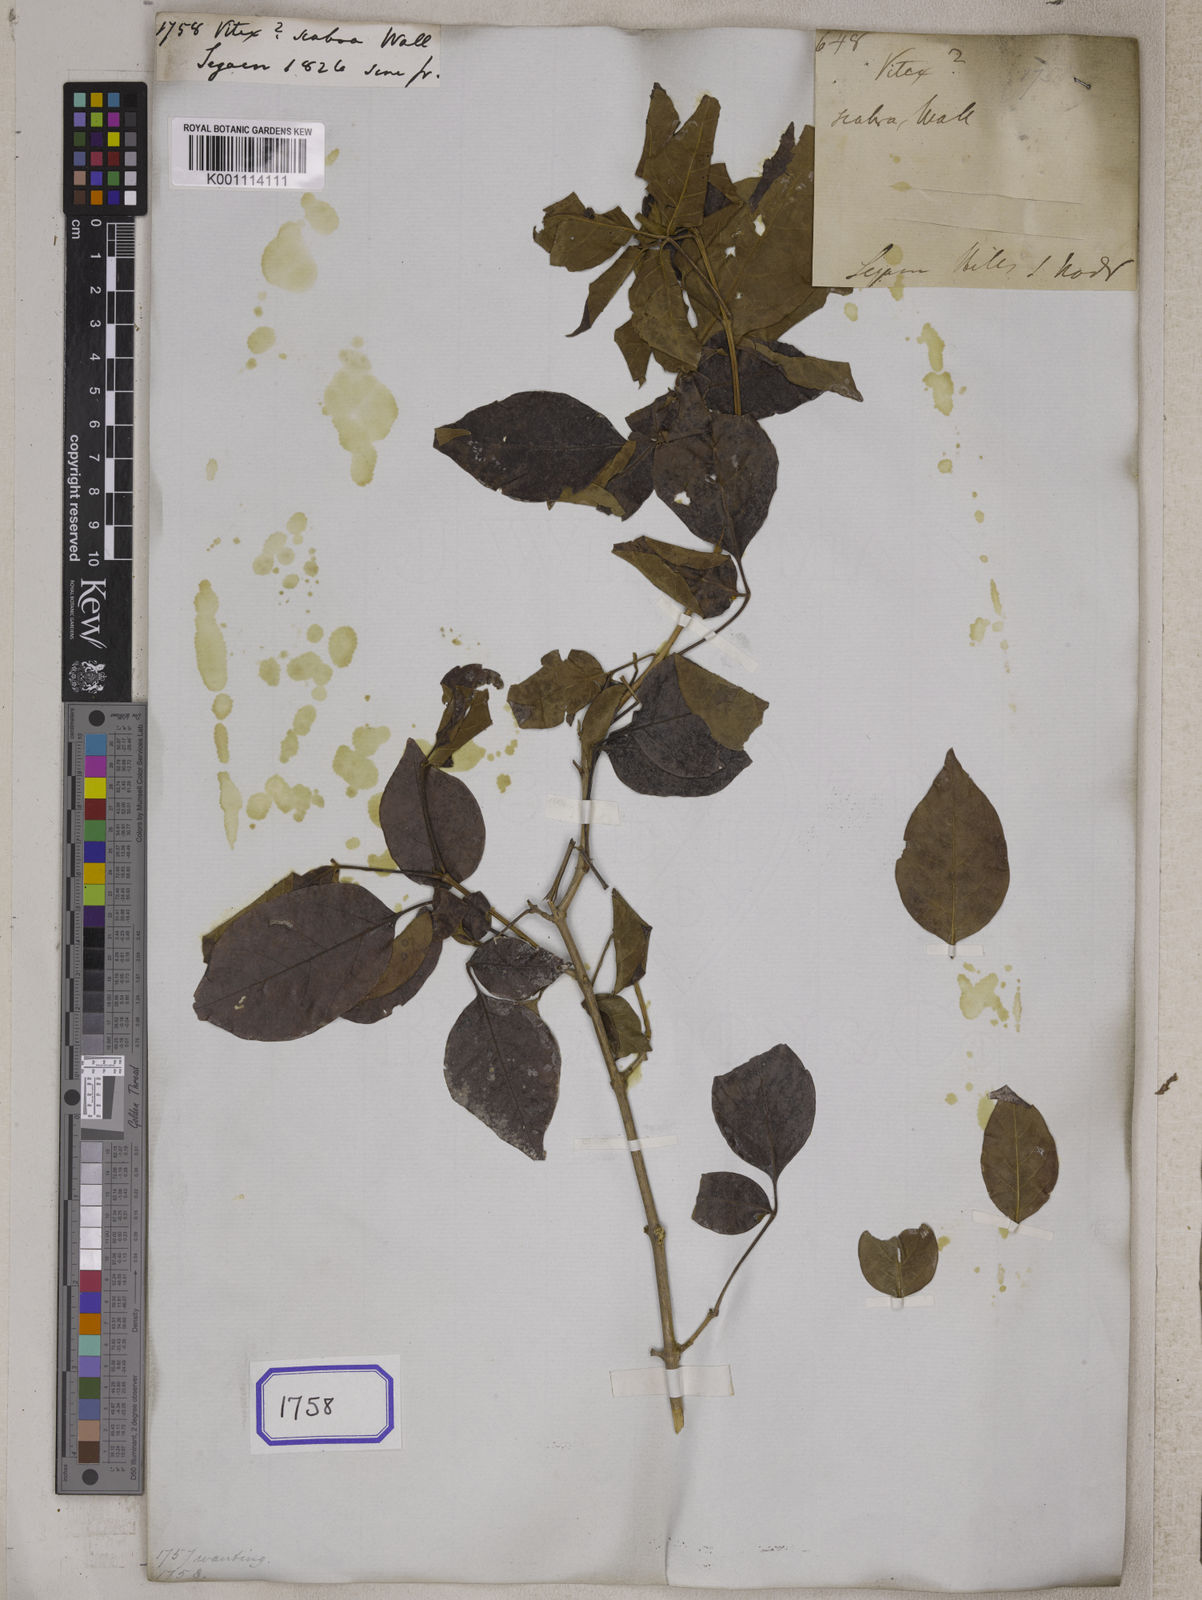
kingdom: Plantae
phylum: Tracheophyta
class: Magnoliopsida
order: Lamiales
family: Lamiaceae
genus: Vitex
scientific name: Vitex
